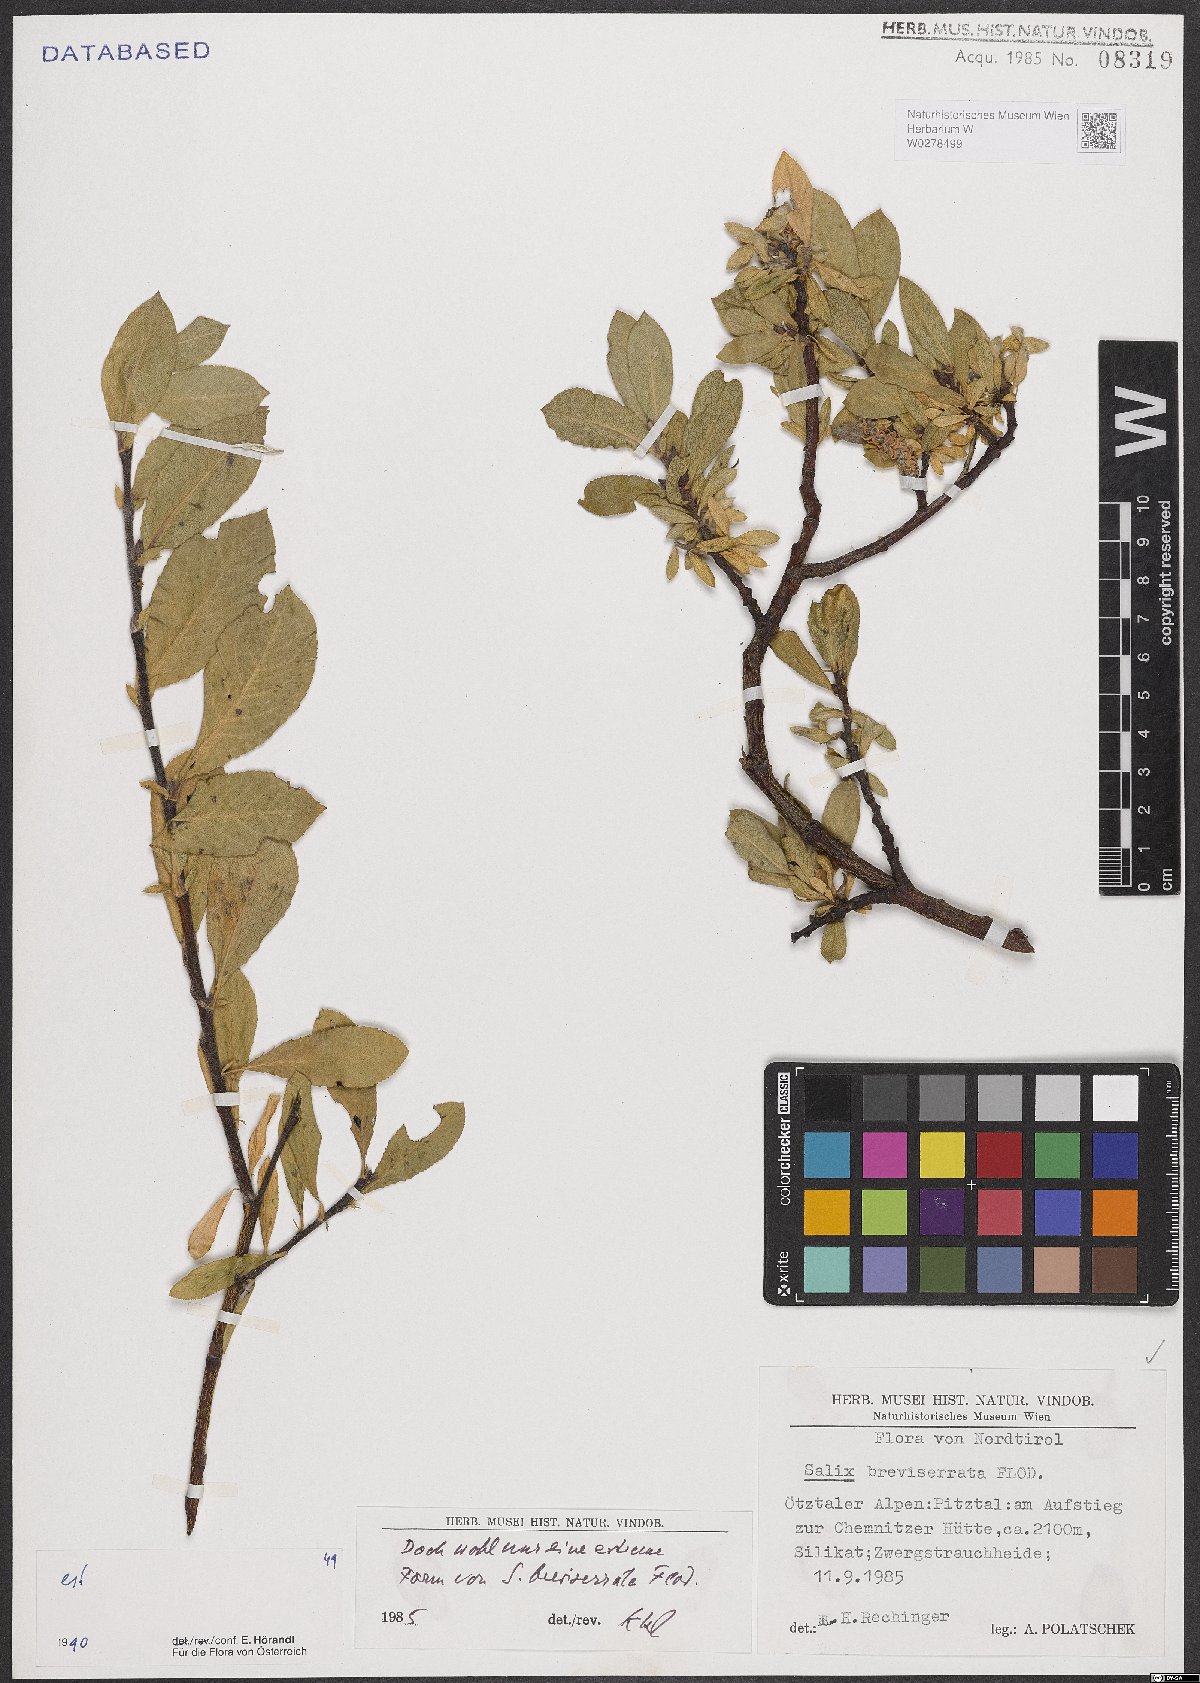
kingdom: Plantae
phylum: Tracheophyta
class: Magnoliopsida
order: Malpighiales
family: Salicaceae
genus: Salix
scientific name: Salix breviserrata
